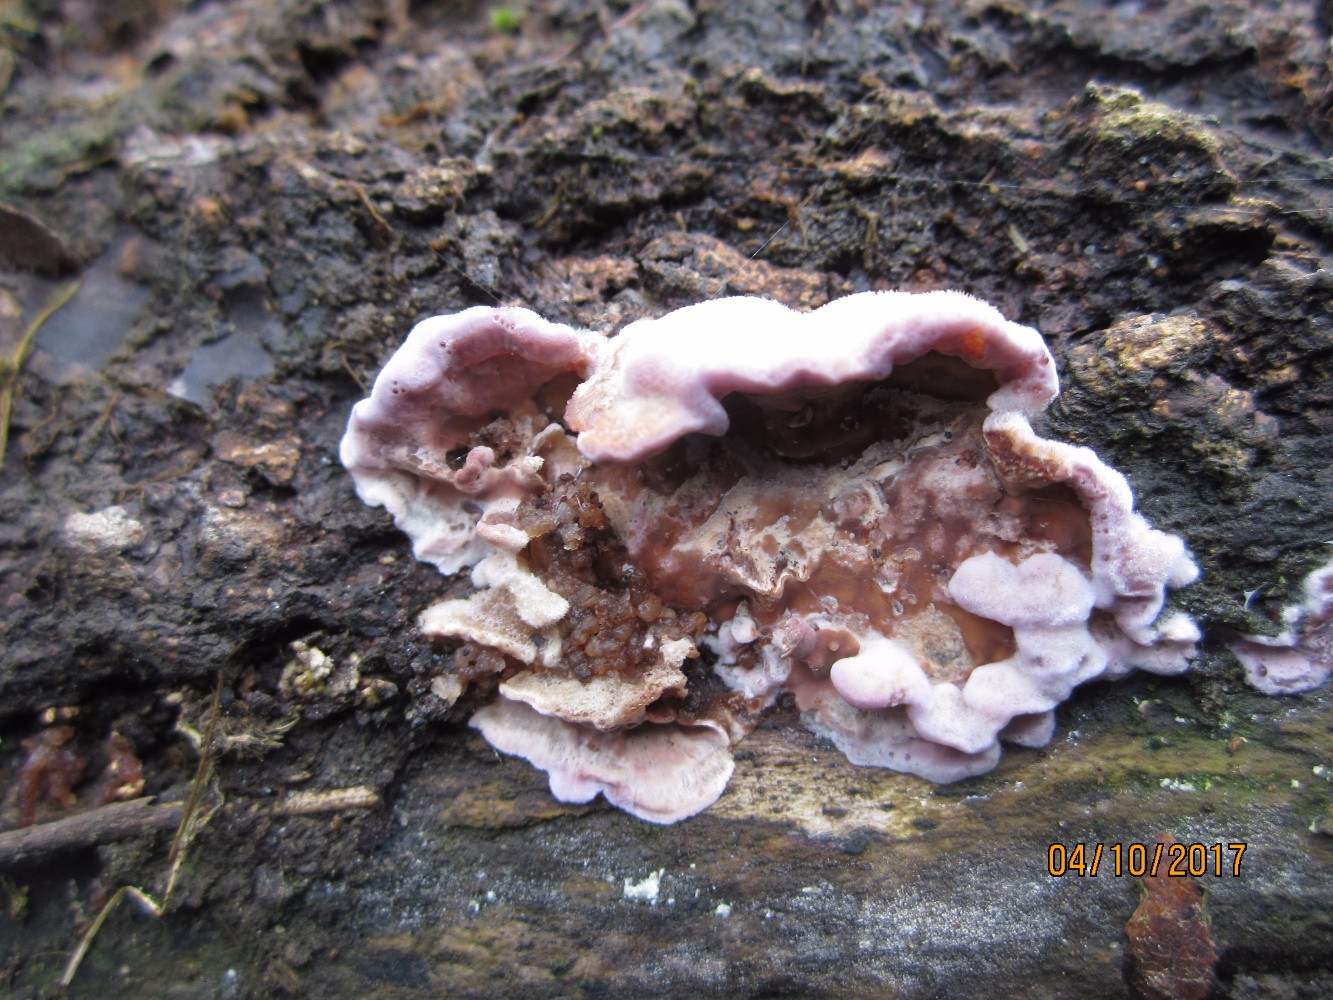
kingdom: Fungi
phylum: Basidiomycota
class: Agaricomycetes
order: Agaricales
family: Cyphellaceae
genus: Chondrostereum
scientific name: Chondrostereum purpureum
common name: purpurlædersvamp
